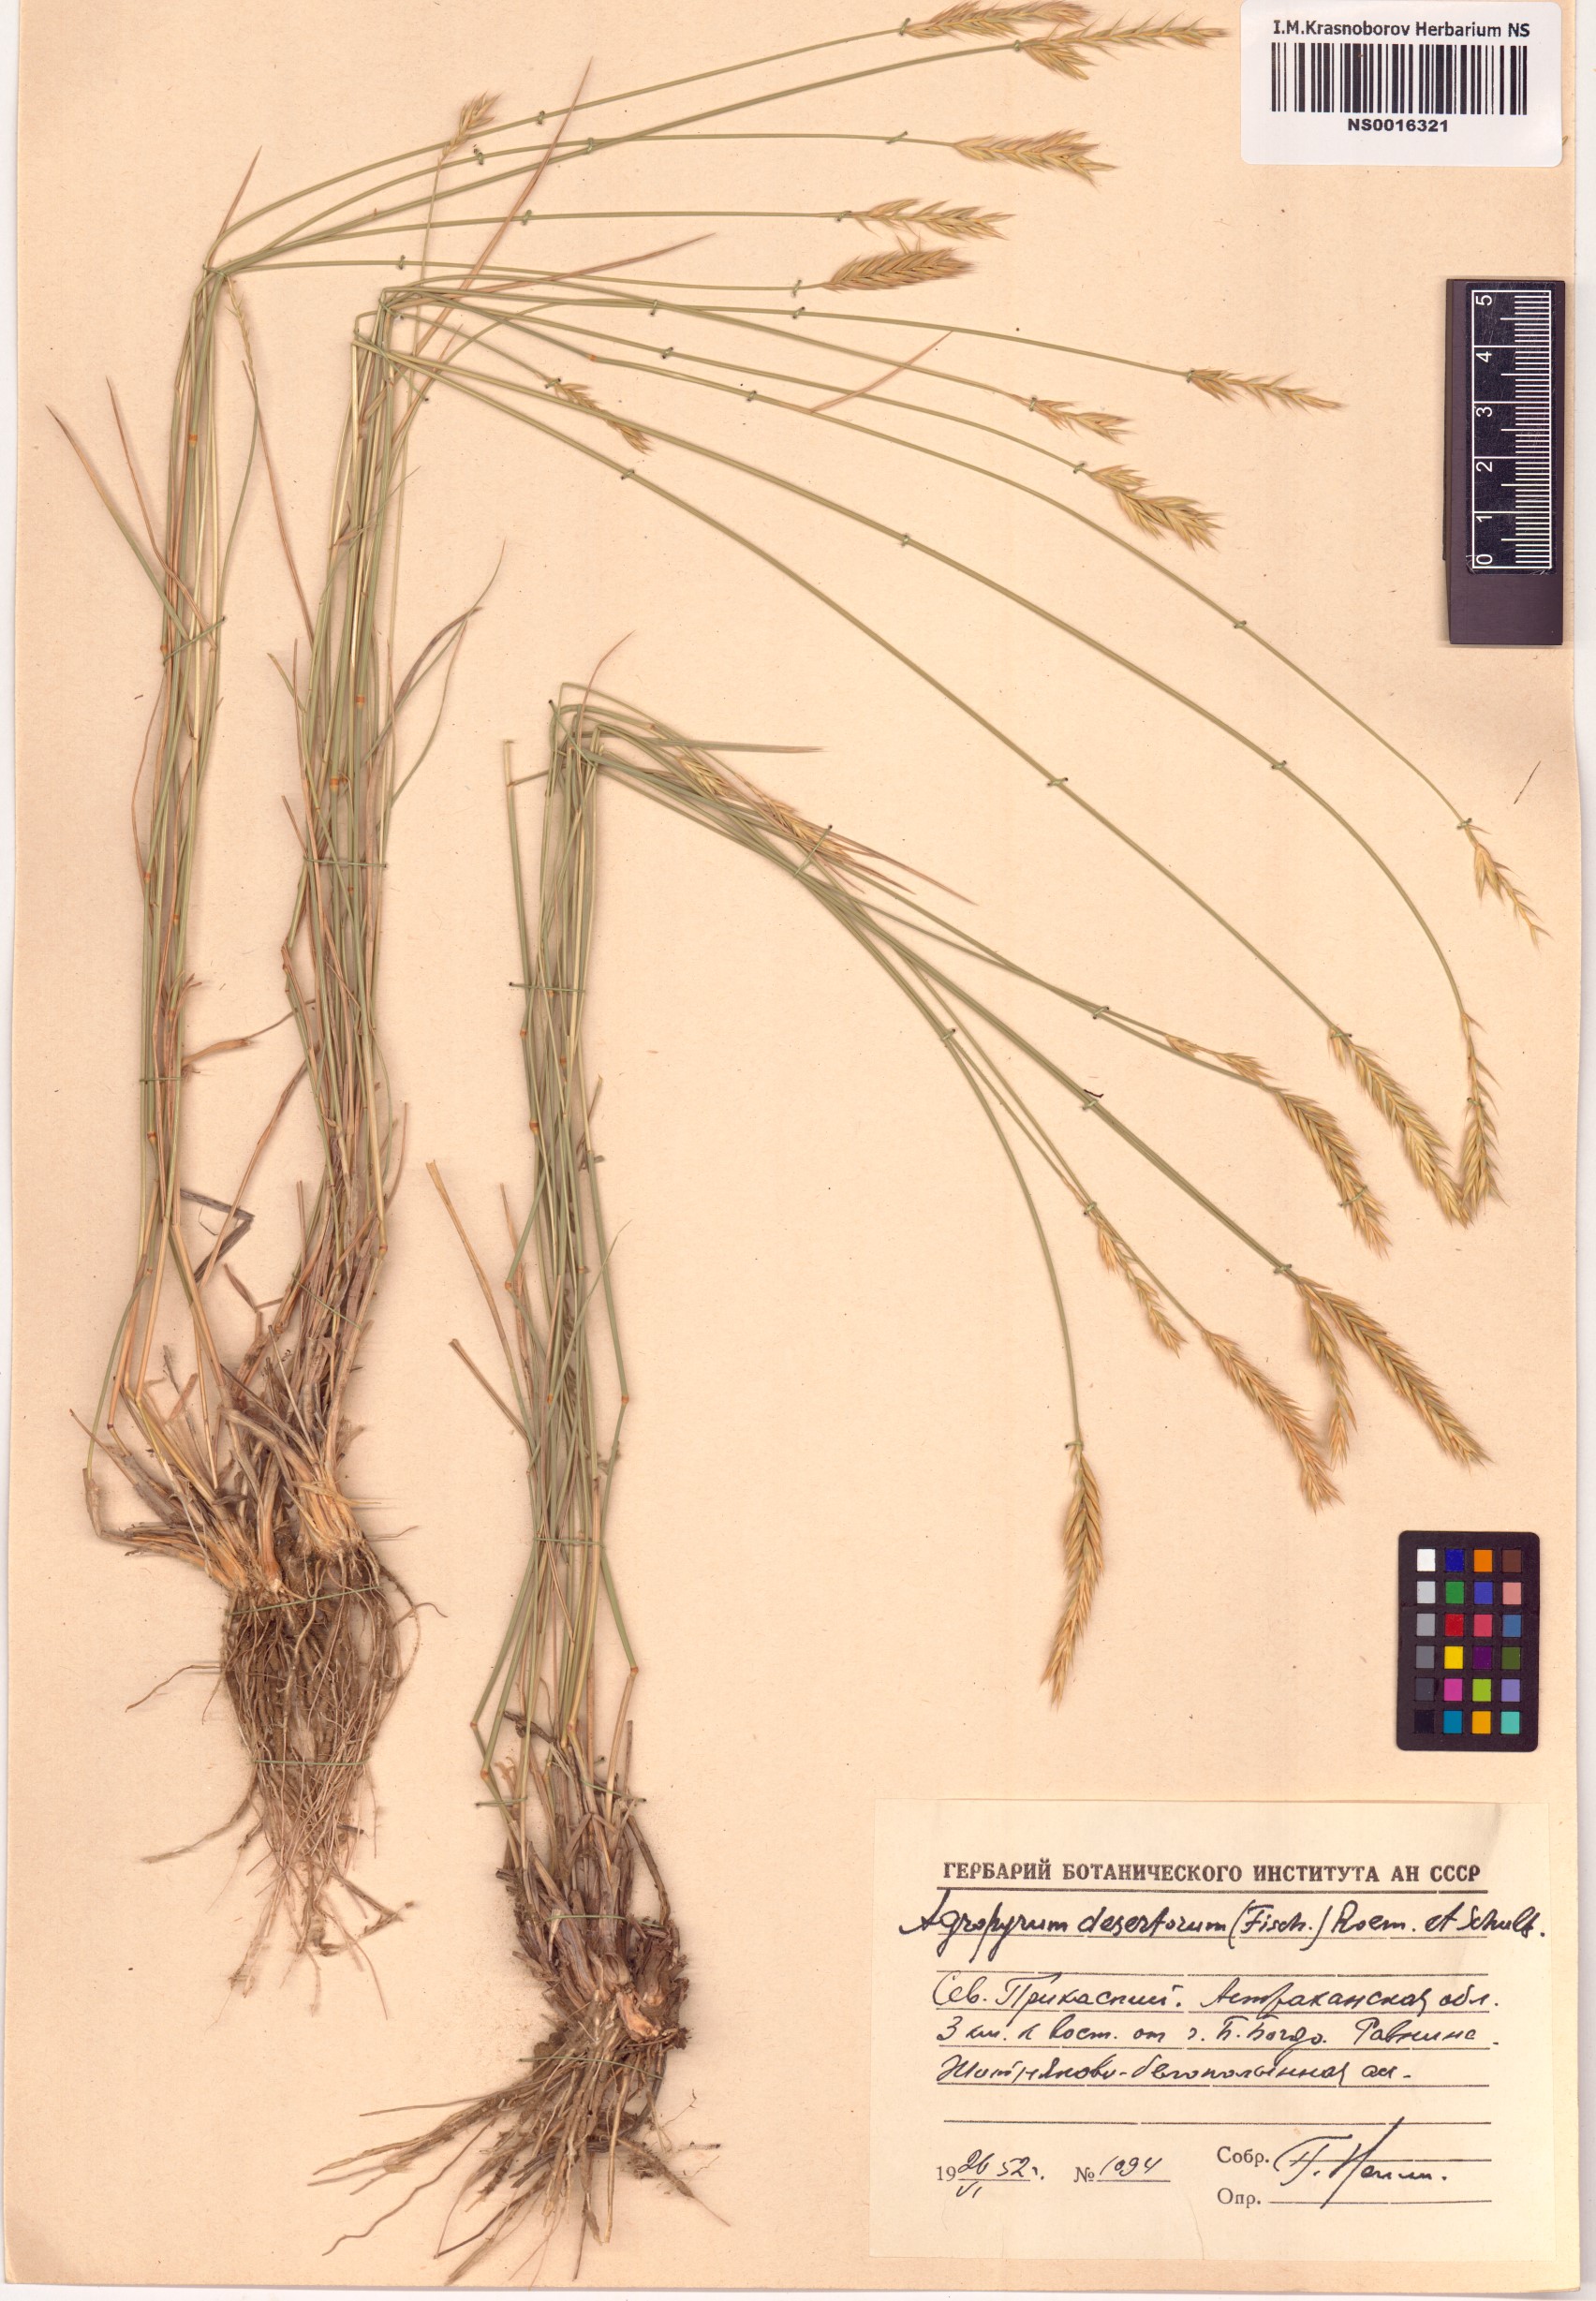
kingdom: Plantae
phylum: Tracheophyta
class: Liliopsida
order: Poales
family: Poaceae
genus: Agropyron
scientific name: Agropyron desertorum
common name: Desert wheatgrass
